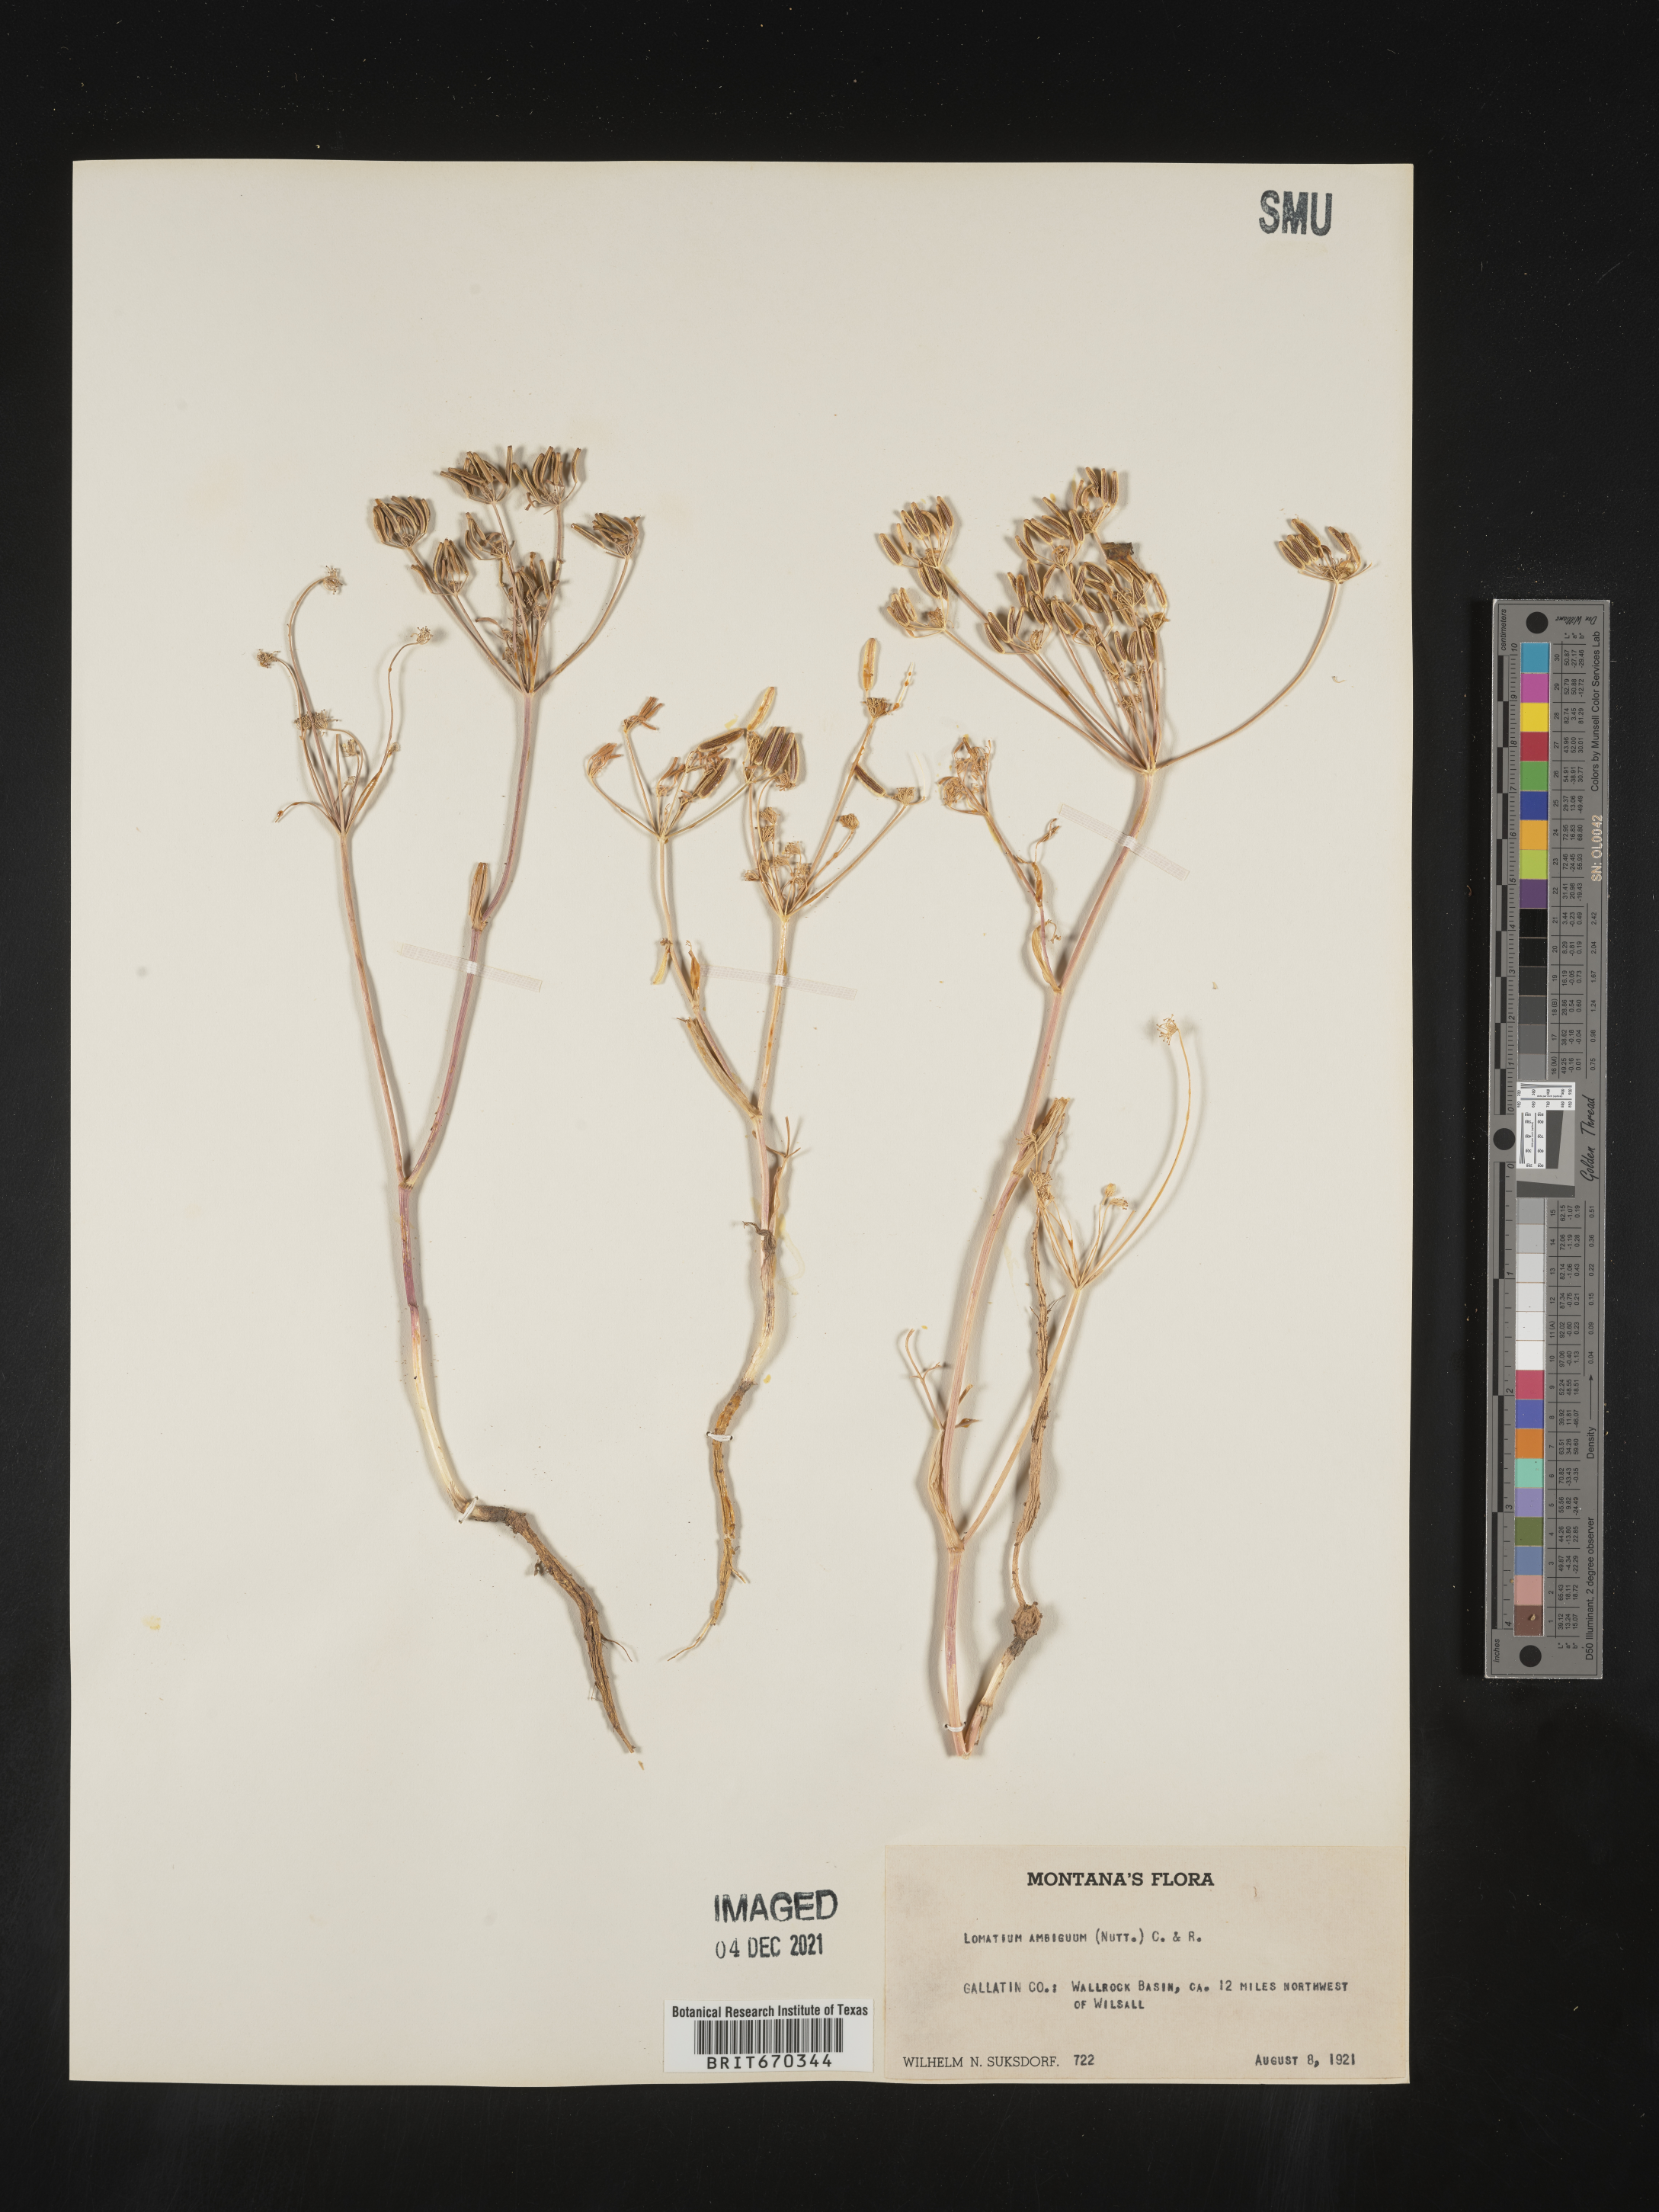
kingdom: Plantae
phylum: Tracheophyta
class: Magnoliopsida
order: Apiales
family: Apiaceae
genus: Lomatium
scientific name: Lomatium ambiguum
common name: Lacy lomatium
